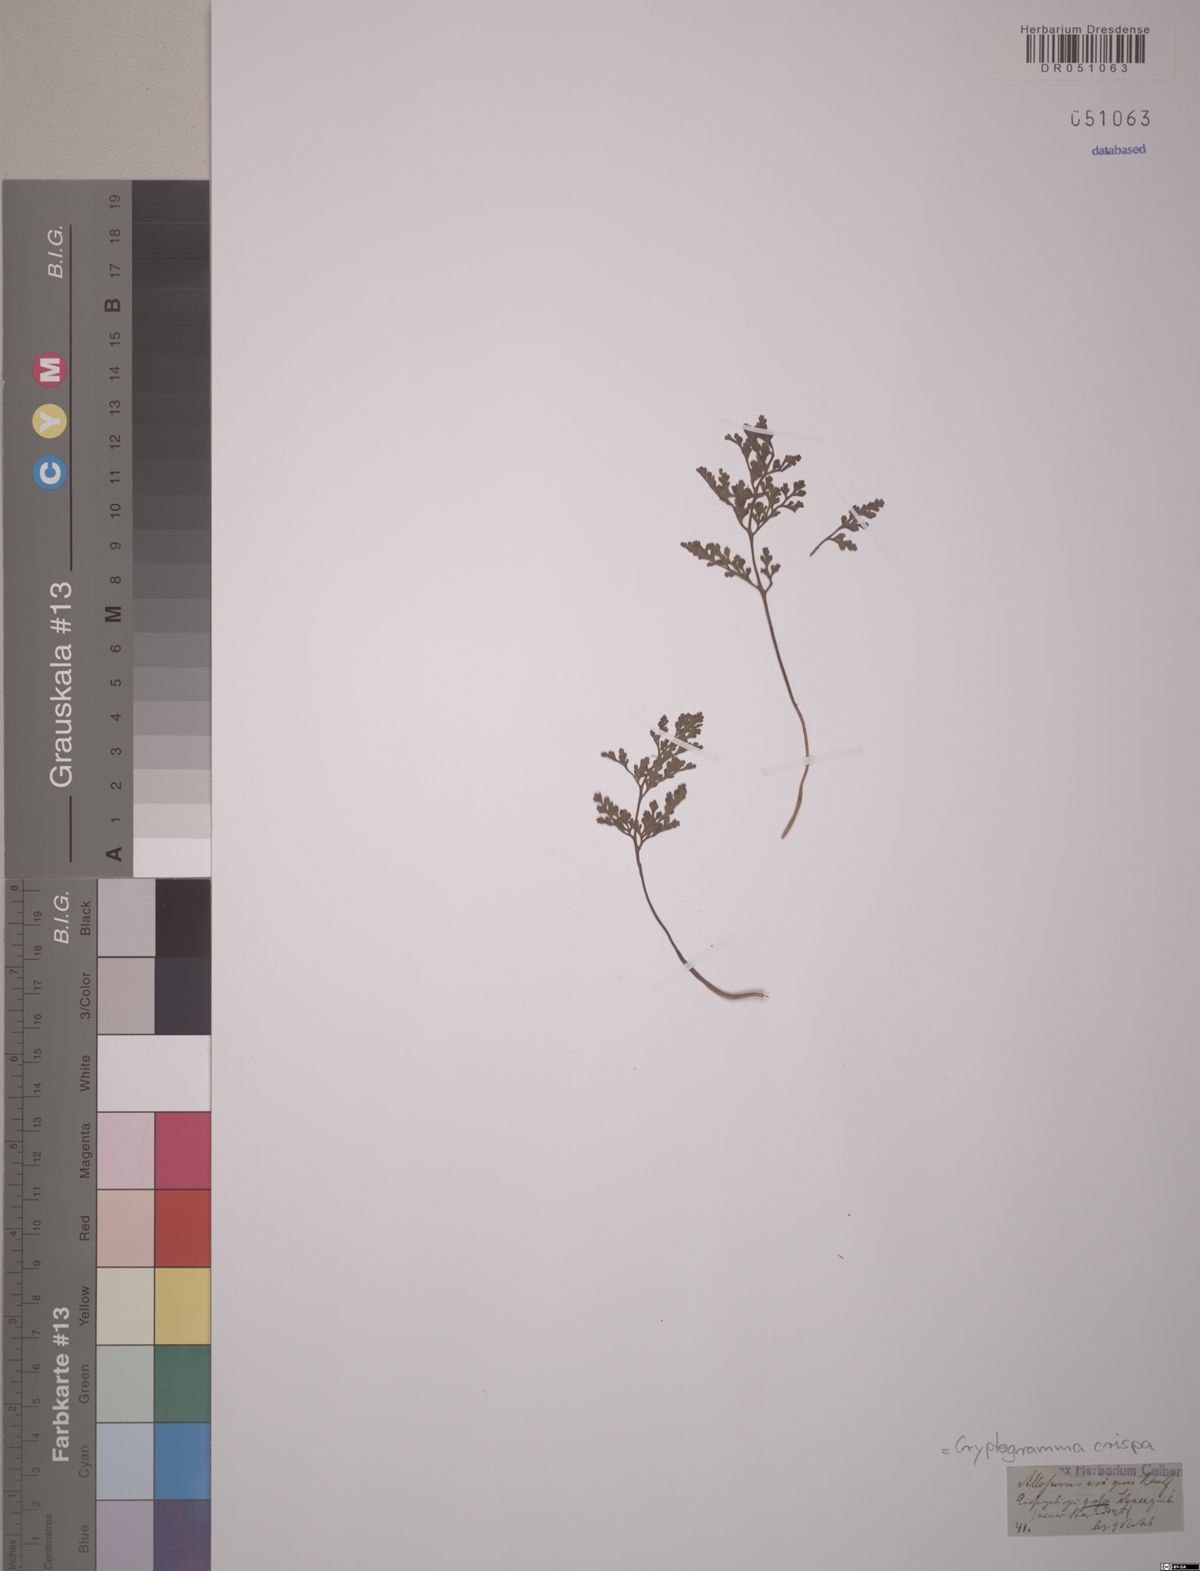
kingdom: Plantae
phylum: Tracheophyta
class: Polypodiopsida
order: Polypodiales
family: Pteridaceae
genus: Cryptogramma
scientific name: Cryptogramma crispa
